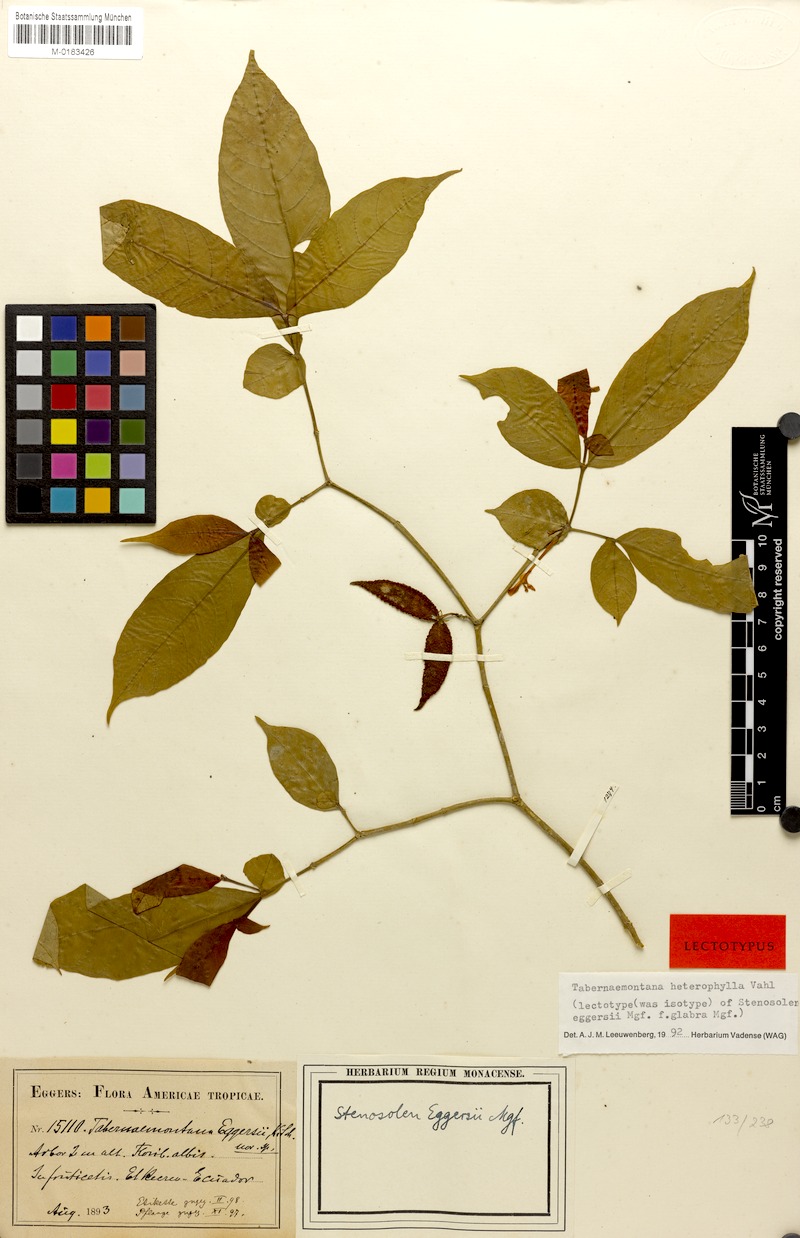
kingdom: Plantae
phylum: Tracheophyta
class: Magnoliopsida
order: Gentianales
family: Apocynaceae
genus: Tabernaemontana
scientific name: Tabernaemontana heterophylla
